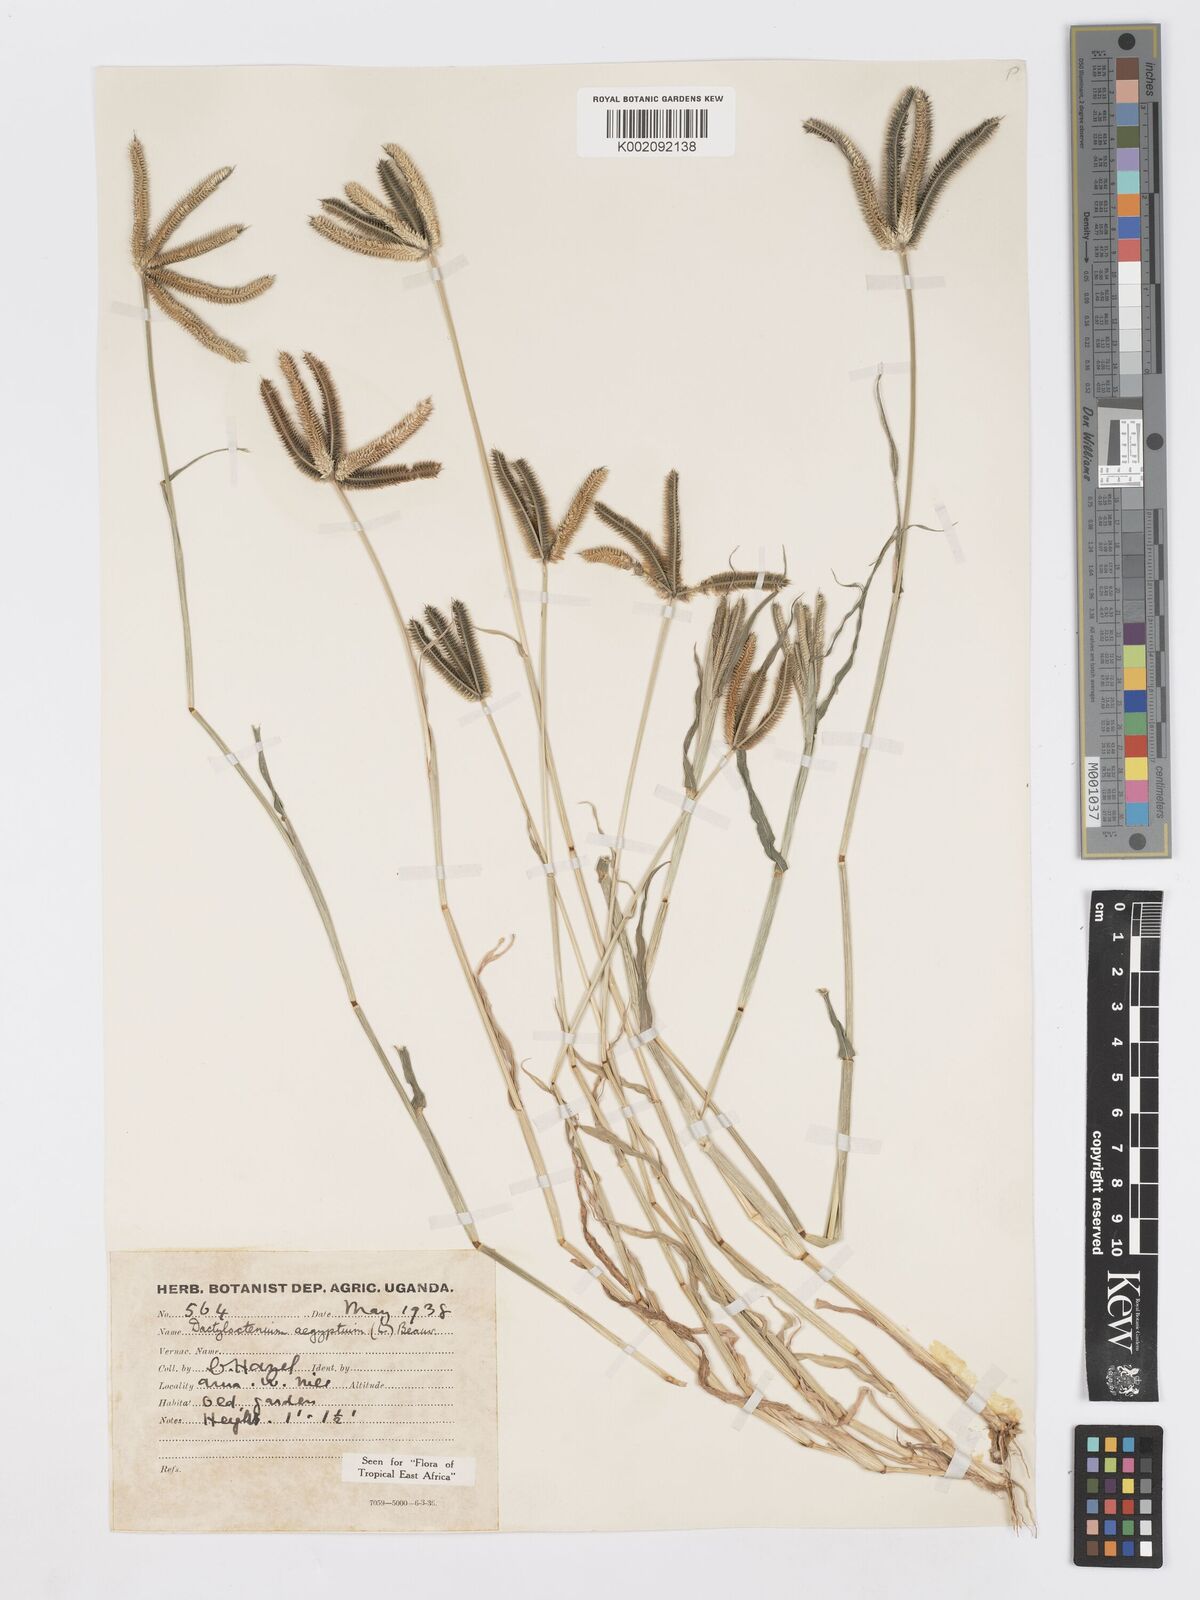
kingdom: Plantae
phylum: Tracheophyta
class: Liliopsida
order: Poales
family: Poaceae
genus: Dactyloctenium
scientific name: Dactyloctenium aegyptium
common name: Egyptian grass
